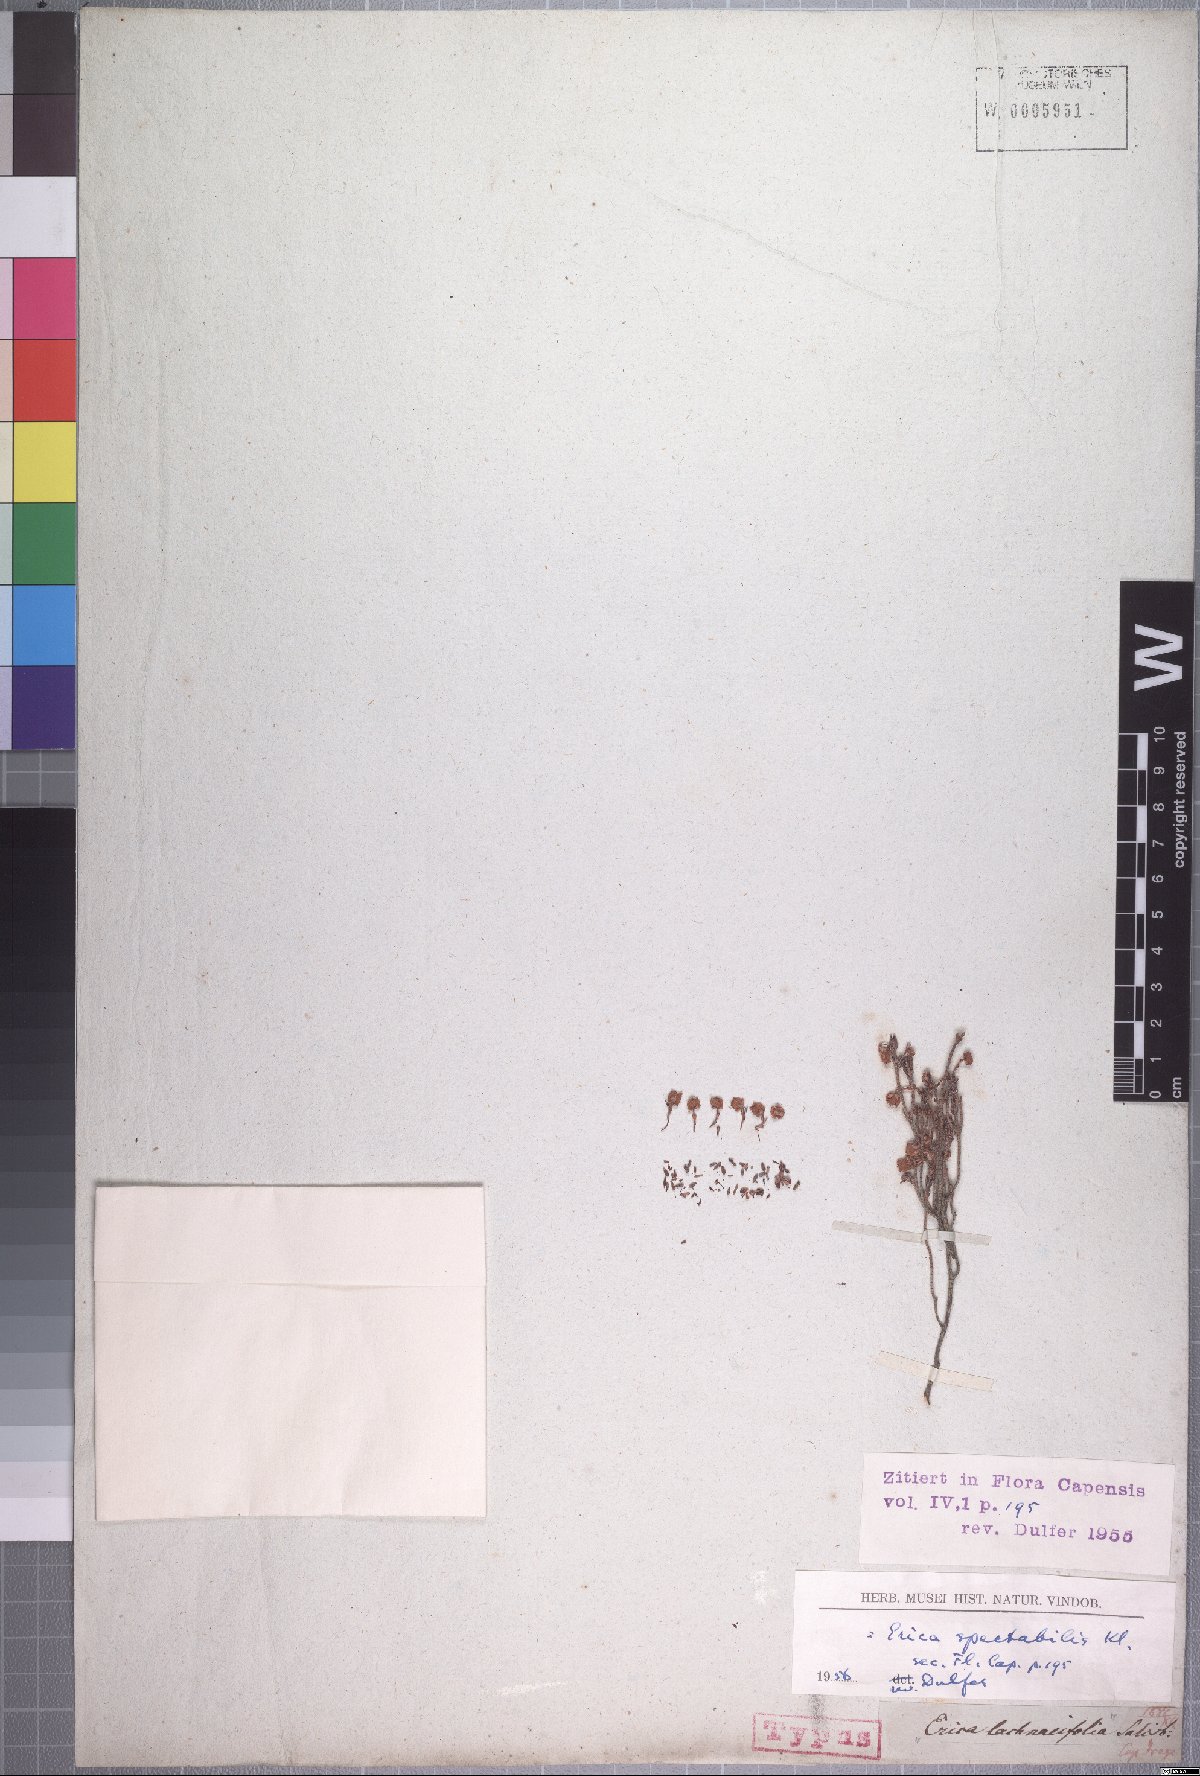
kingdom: Plantae
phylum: Tracheophyta
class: Magnoliopsida
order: Ericales
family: Ericaceae
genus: Erica
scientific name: Erica spectabilis
